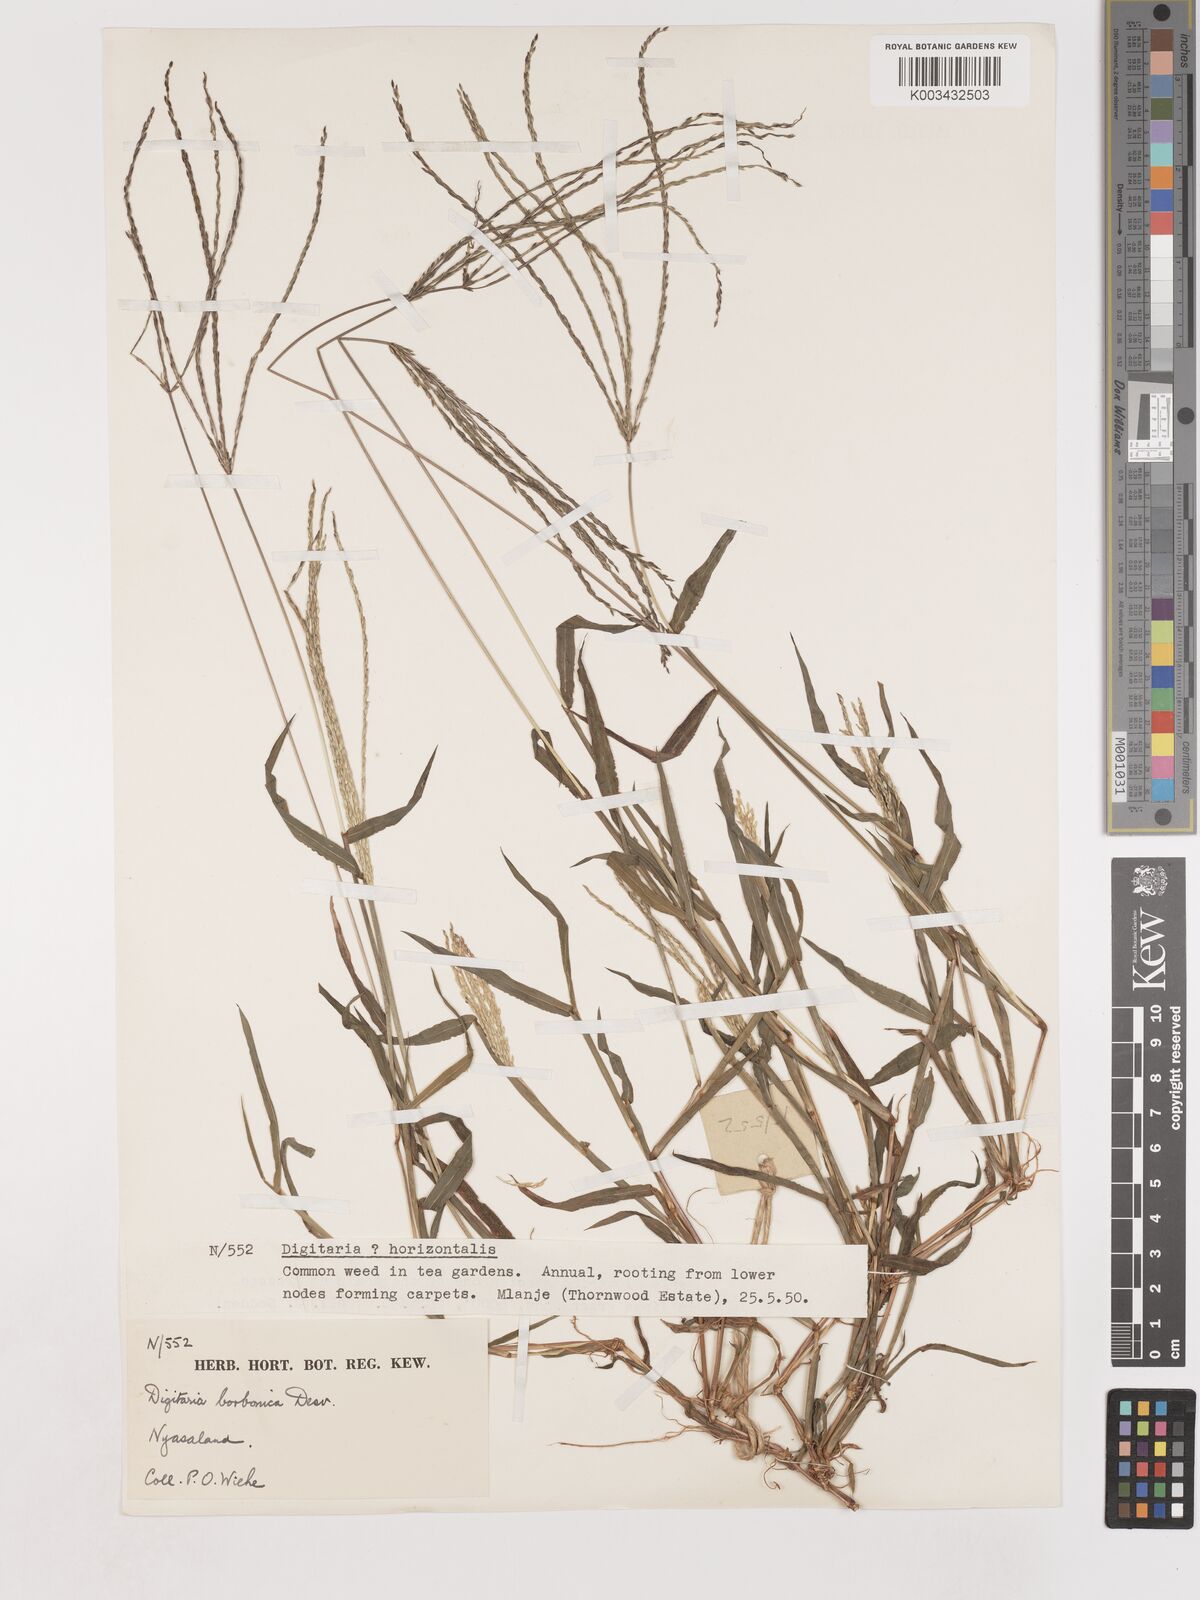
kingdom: Plantae
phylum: Tracheophyta
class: Liliopsida
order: Poales
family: Poaceae
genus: Digitaria
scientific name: Digitaria sanguinalis
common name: Hairy crabgrass
